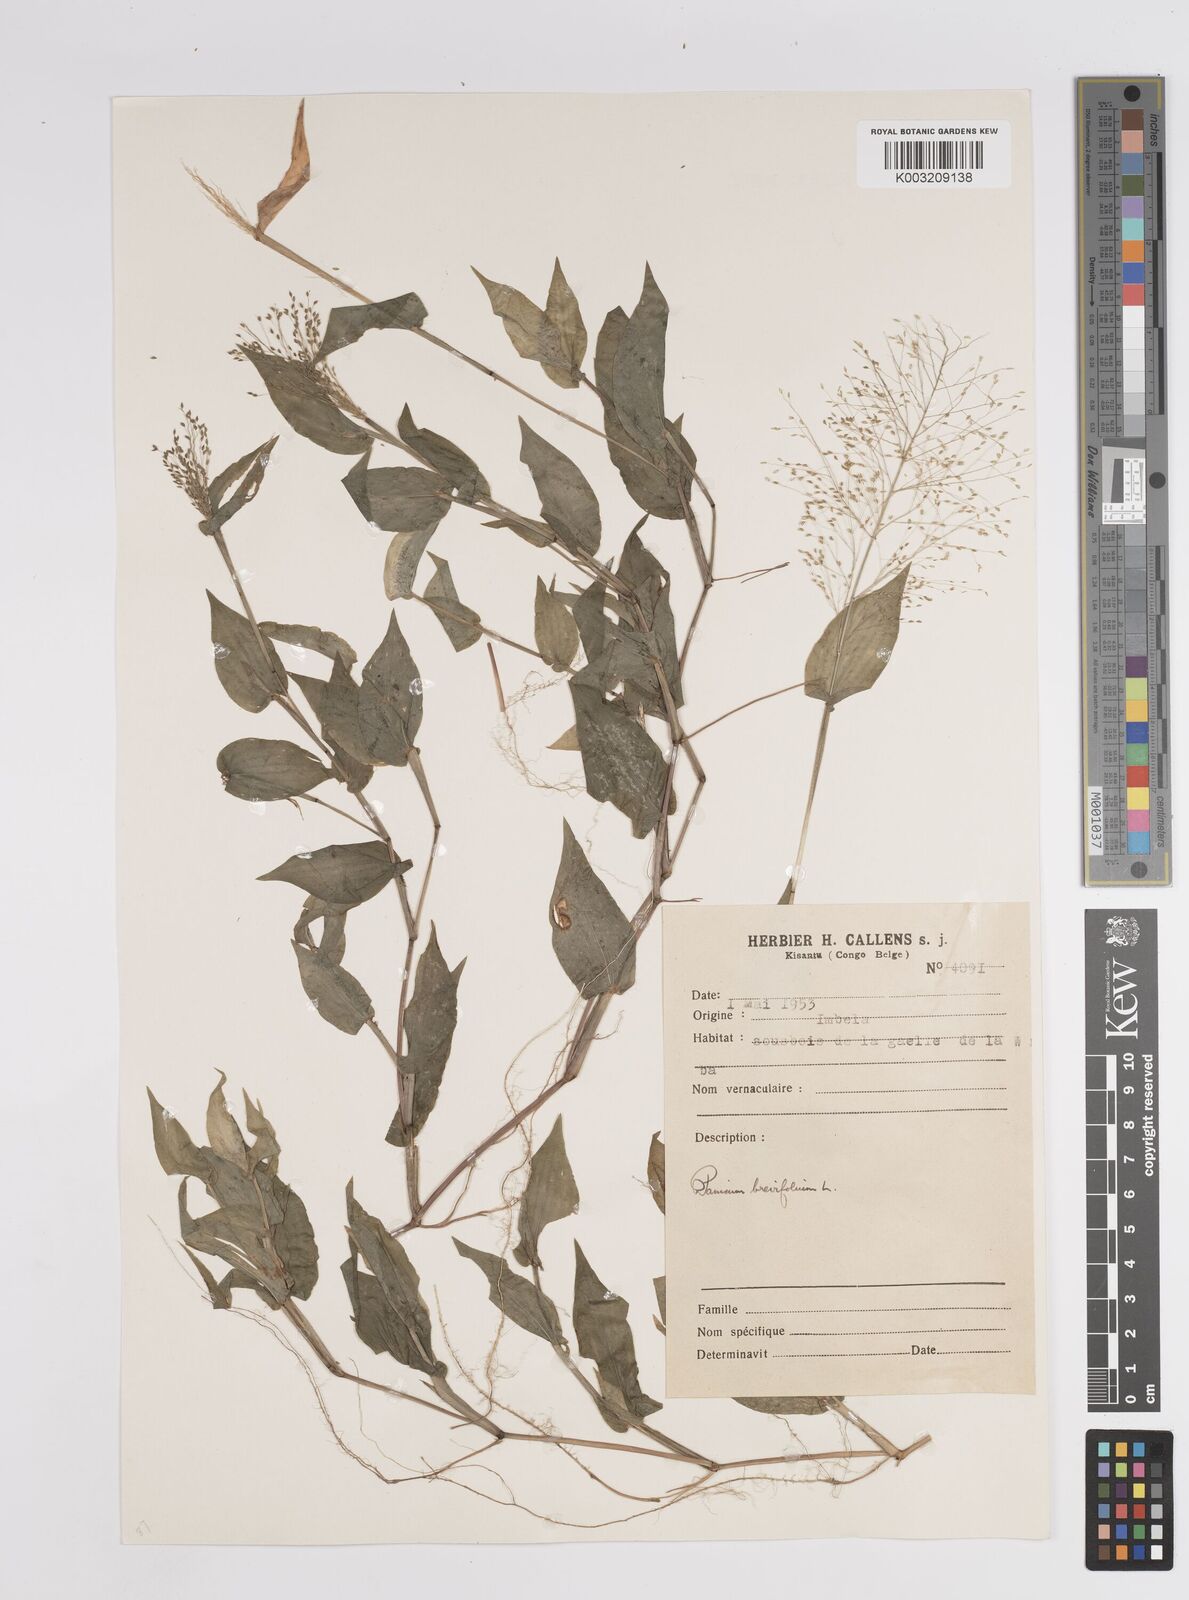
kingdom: Plantae
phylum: Tracheophyta
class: Liliopsida
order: Poales
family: Poaceae
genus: Panicum
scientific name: Panicum brevifolium
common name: Shortleaf panic grass
